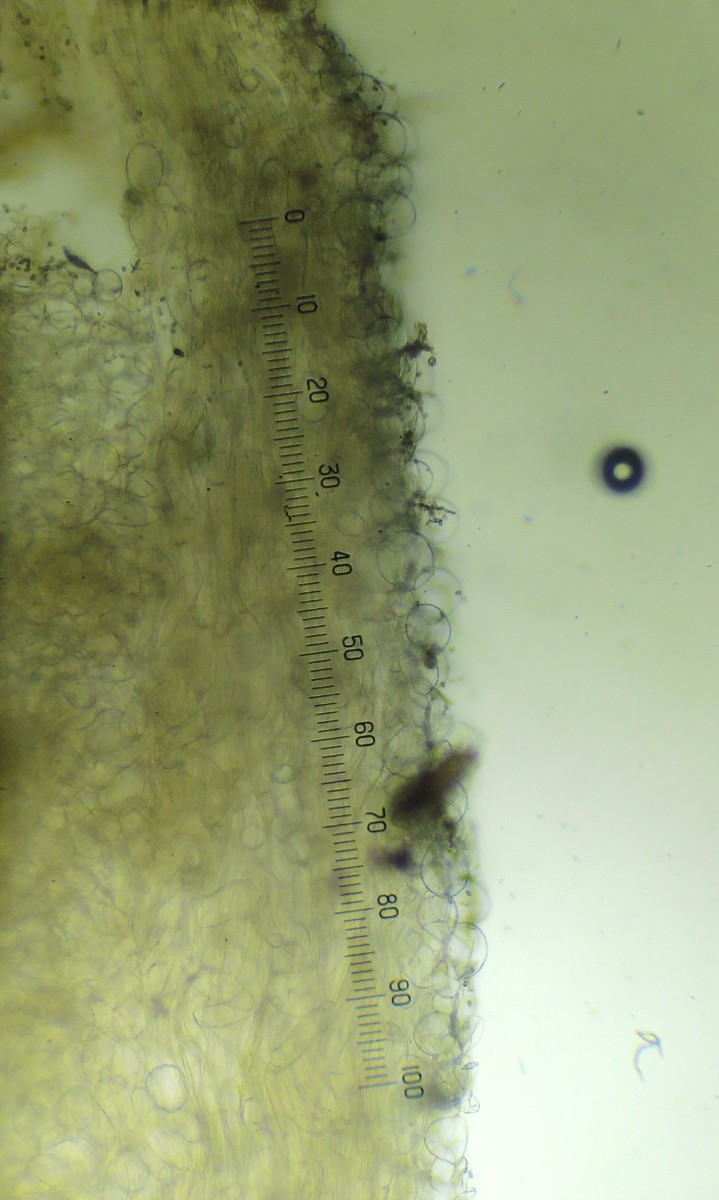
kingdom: Fungi
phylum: Basidiomycota
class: Agaricomycetes
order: Agaricales
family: Psathyrellaceae
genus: Psathyrella
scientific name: Psathyrella laevissima
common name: Slender stump brittlestem
